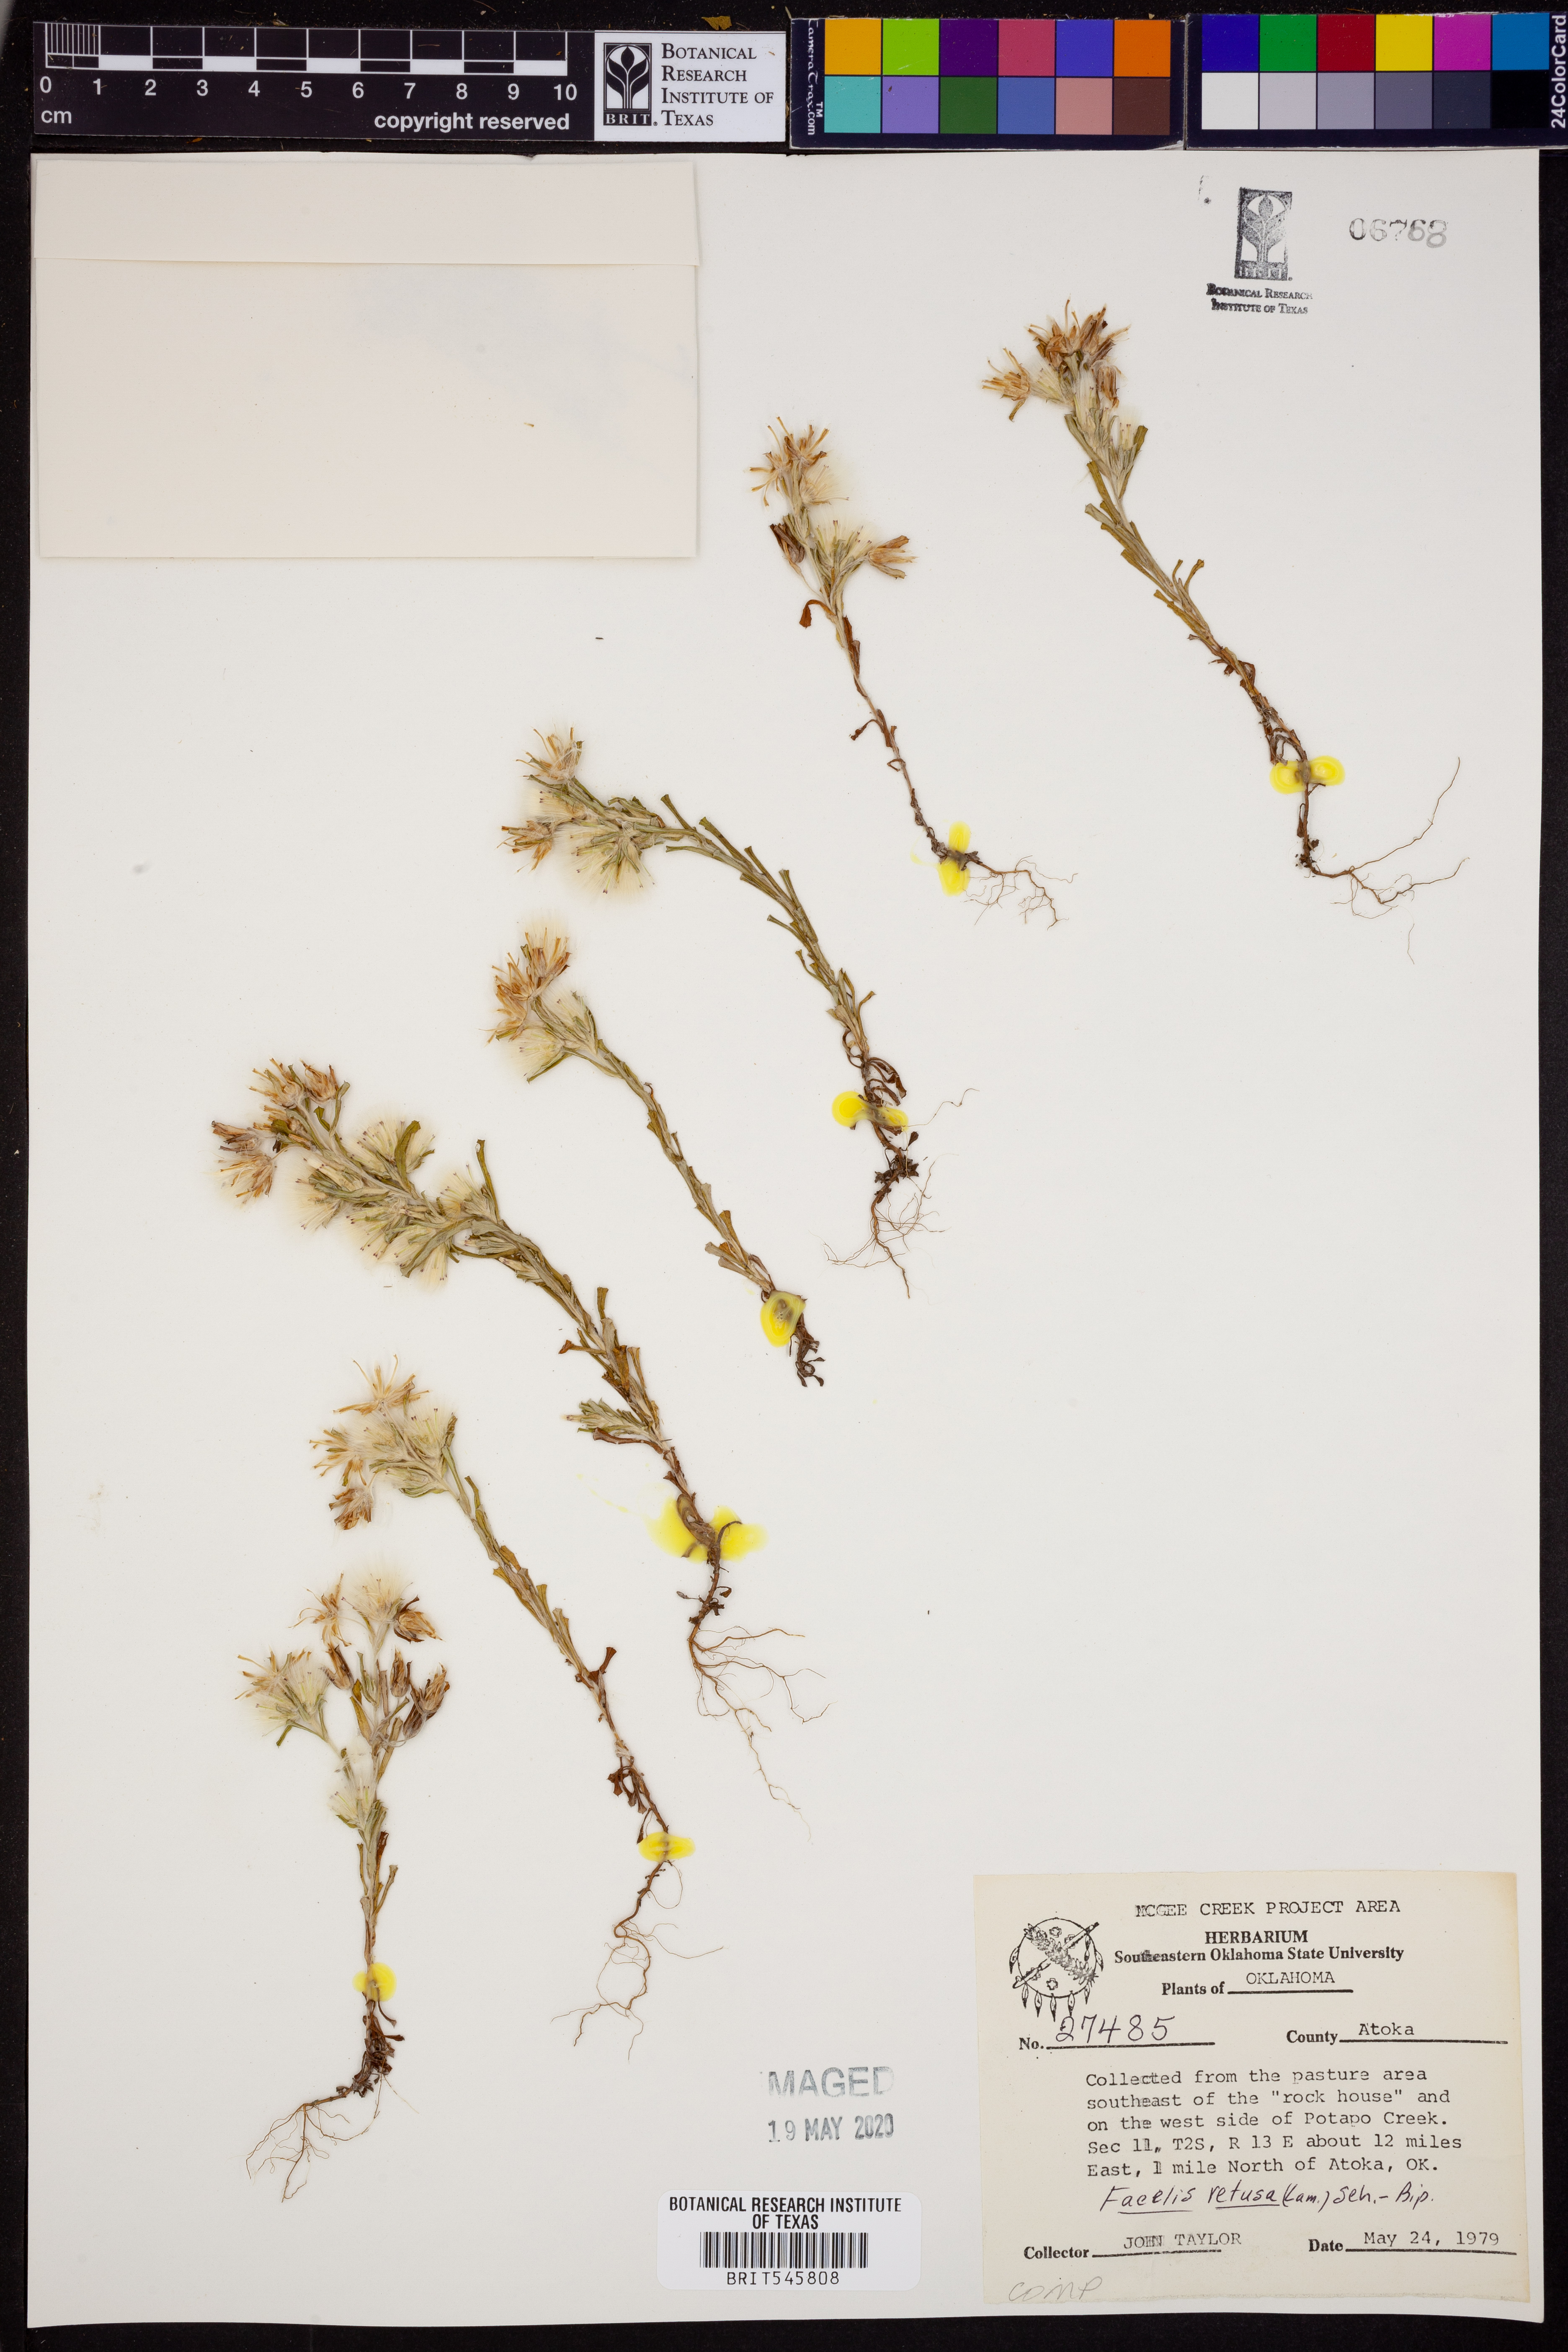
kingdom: Plantae
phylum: Tracheophyta
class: Magnoliopsida
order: Asterales
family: Asteraceae
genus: Facelis
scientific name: Facelis retusa
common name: Annual trampweed
